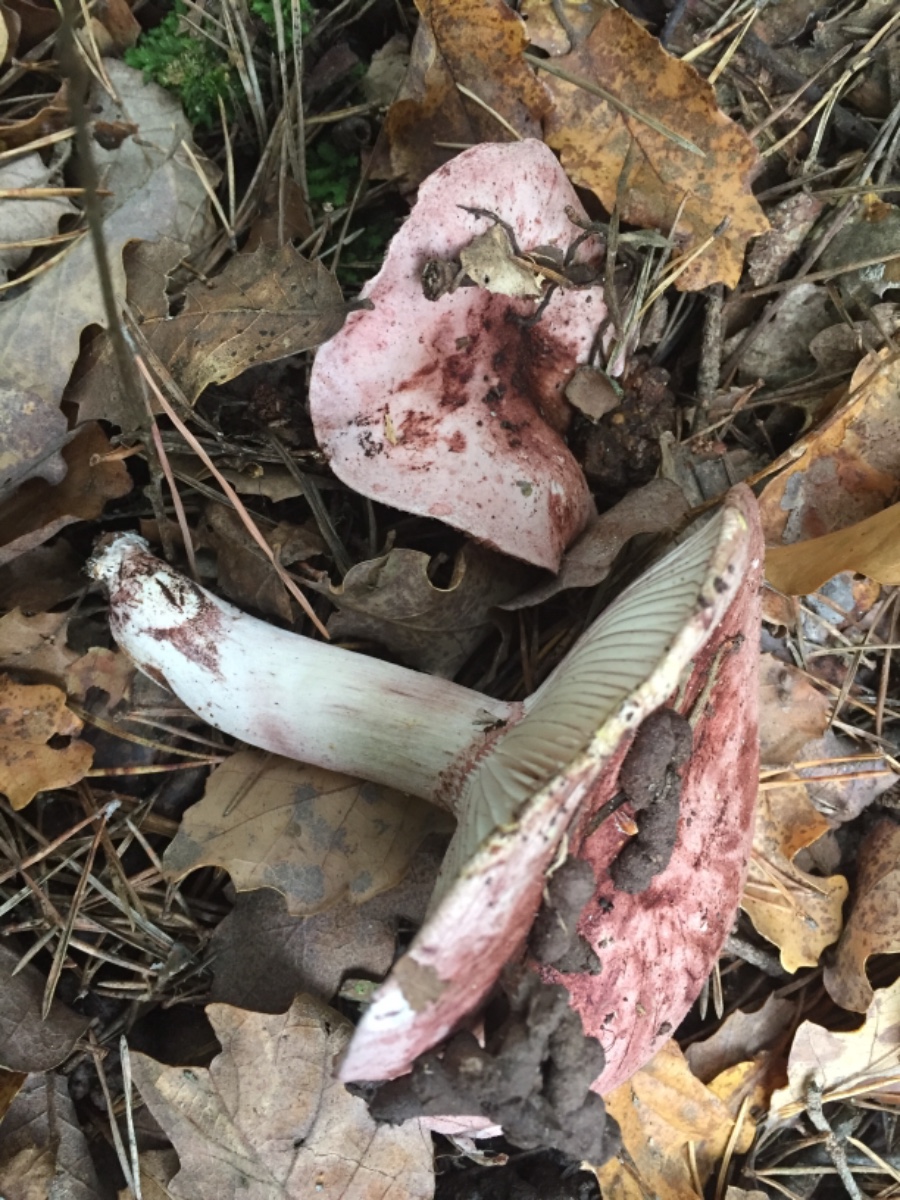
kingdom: Fungi
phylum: Basidiomycota
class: Agaricomycetes
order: Agaricales
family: Hygrophoraceae
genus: Hygrophorus
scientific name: Hygrophorus russula
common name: Pinkmottle woodwax
